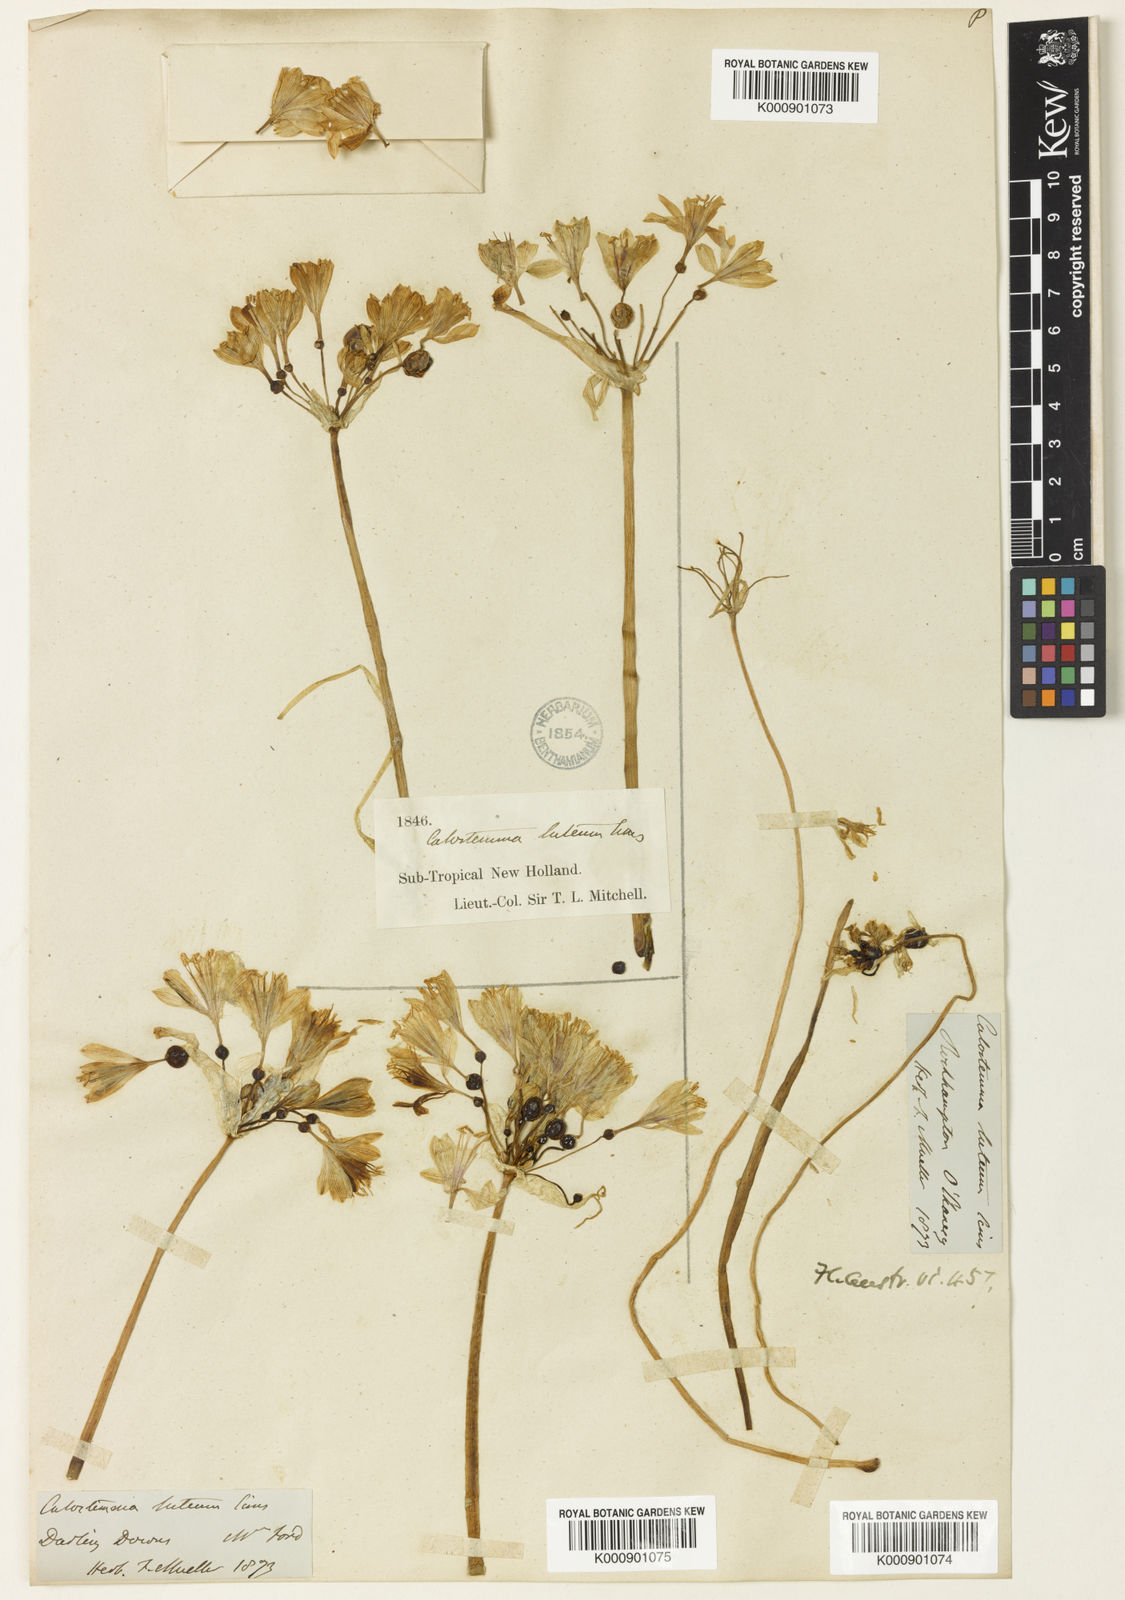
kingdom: Plantae
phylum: Tracheophyta
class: Liliopsida
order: Asparagales
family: Amaryllidaceae
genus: Calostemma
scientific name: Calostemma luteum
